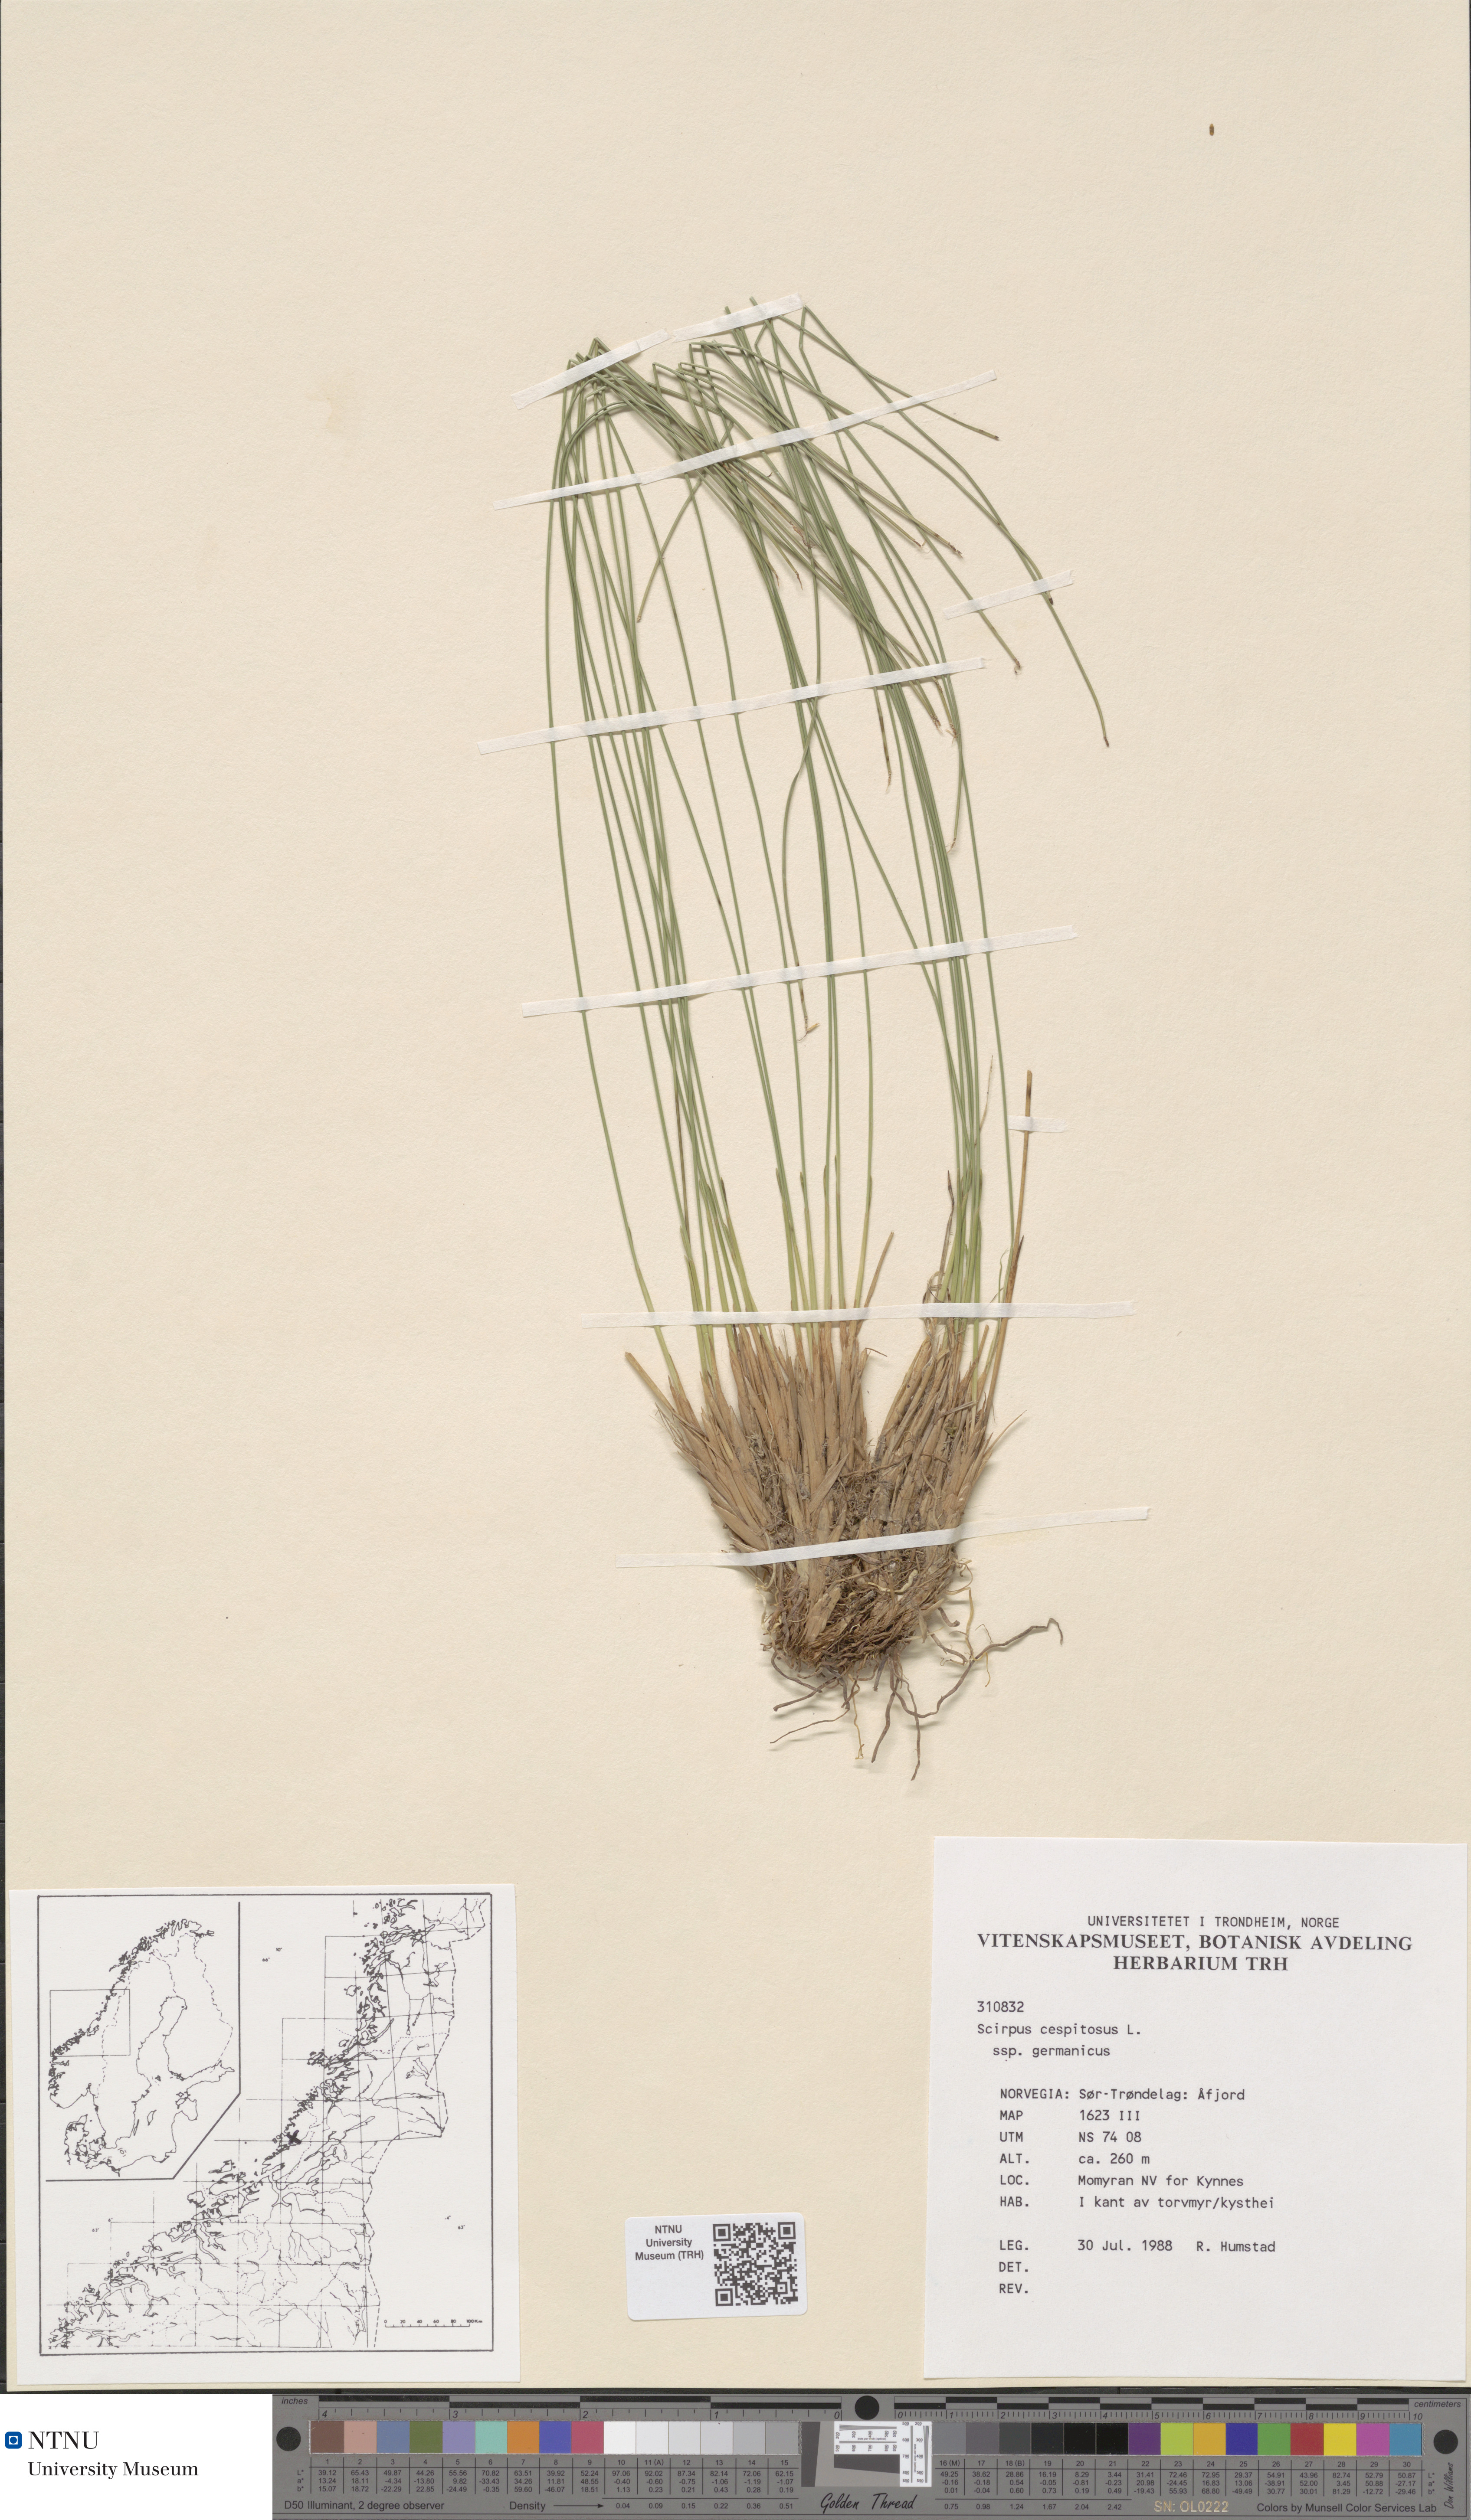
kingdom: Plantae
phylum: Tracheophyta
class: Liliopsida
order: Poales
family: Cyperaceae
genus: Trichophorum
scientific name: Trichophorum cespitosum
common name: Cespitose bulrush
